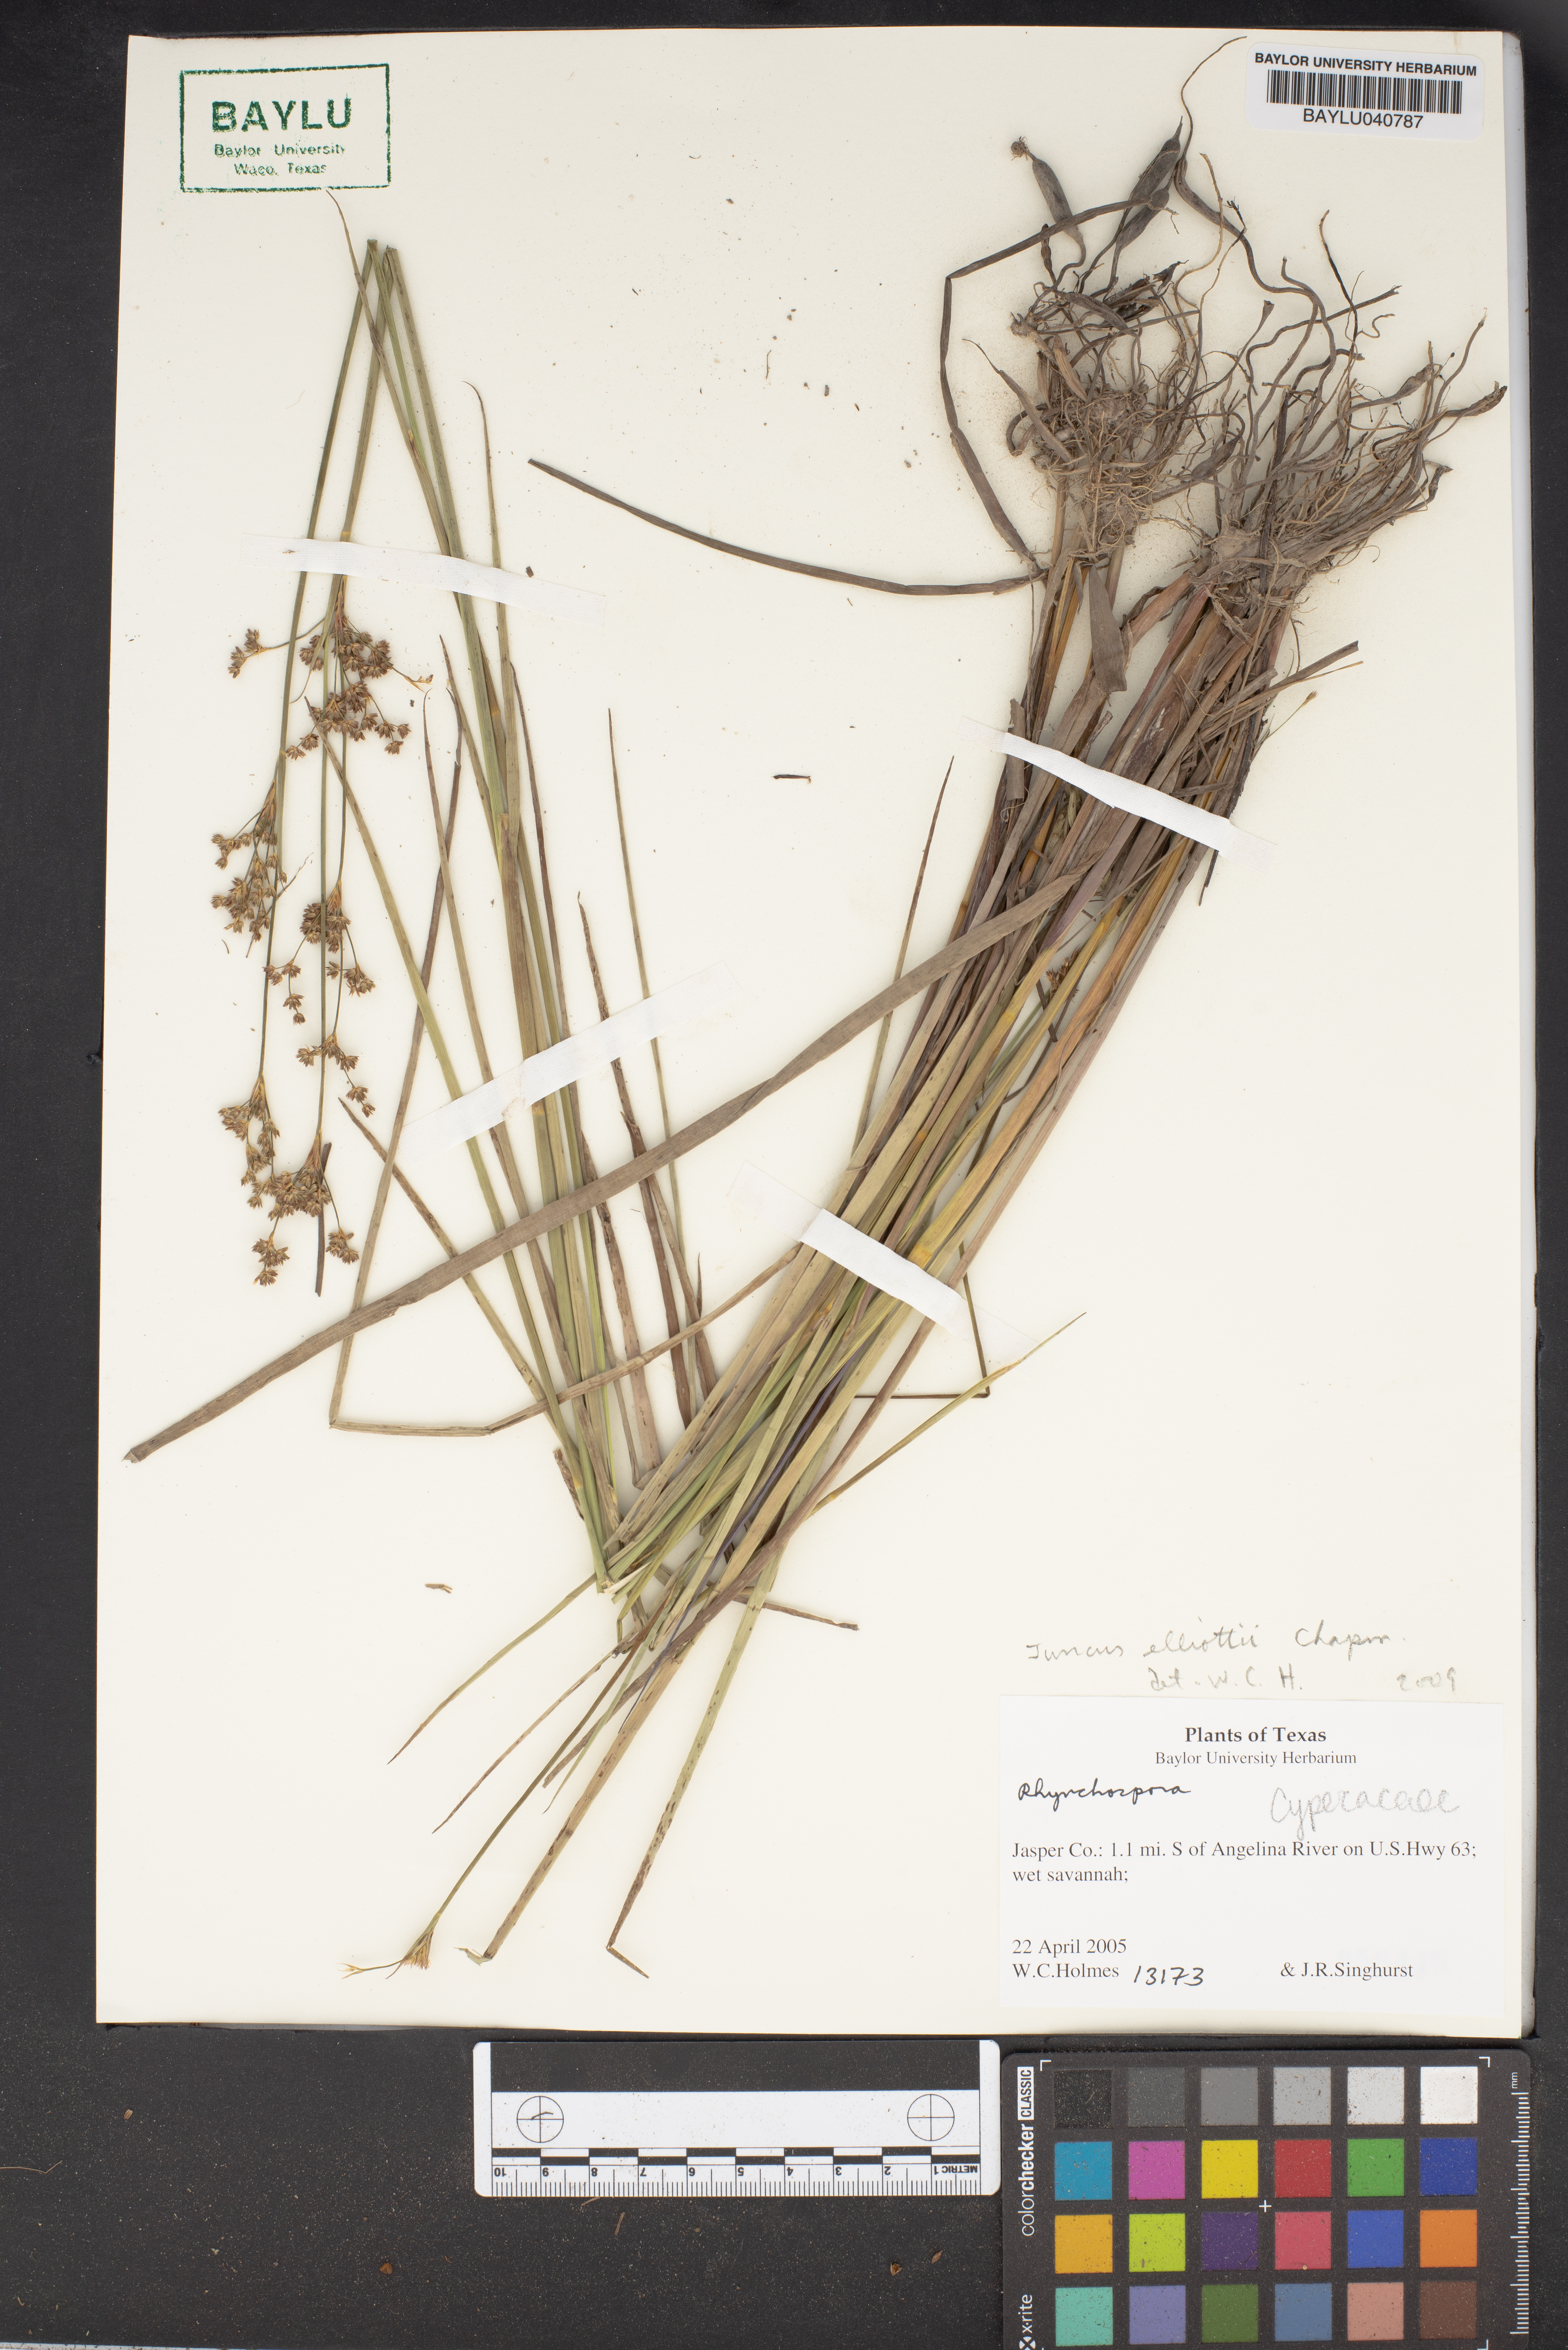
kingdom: Plantae
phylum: Tracheophyta
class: Liliopsida
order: Poales
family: Juncaceae
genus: Juncus
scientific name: Juncus elliottii
